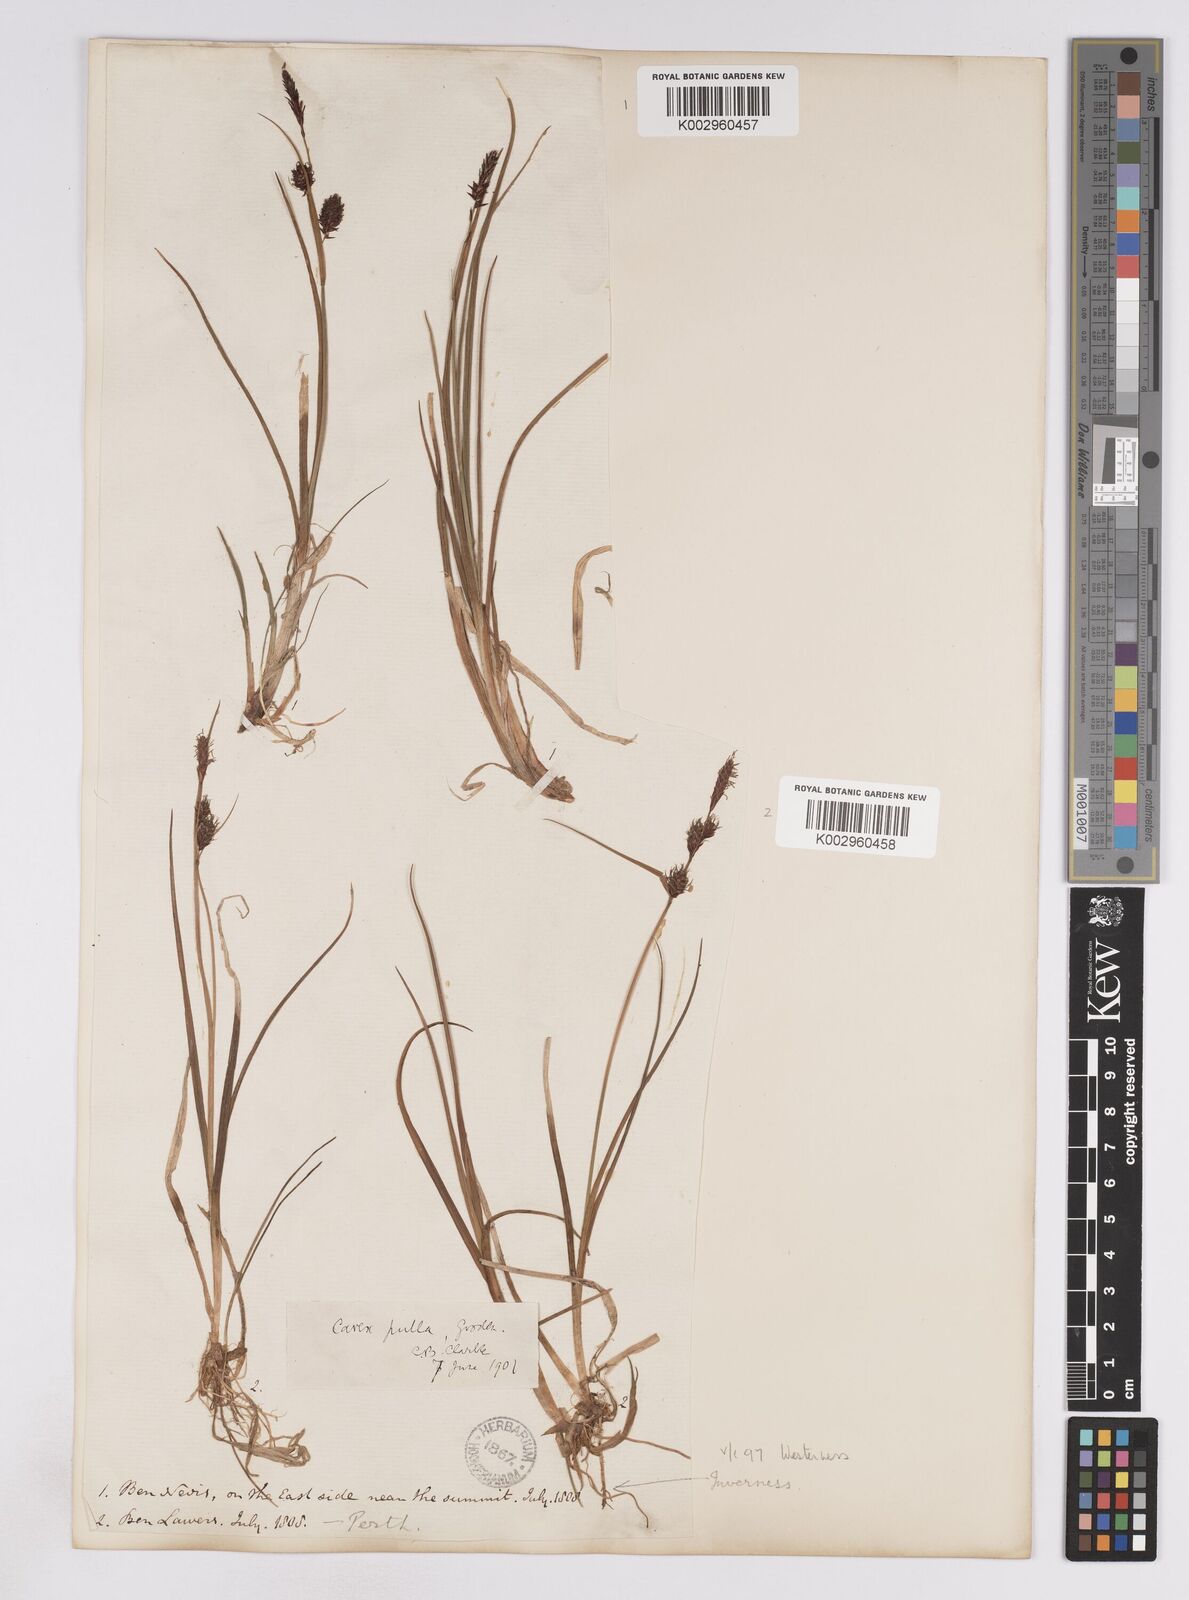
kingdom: Plantae
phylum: Tracheophyta
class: Liliopsida
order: Poales
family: Cyperaceae
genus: Carex
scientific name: Carex saxatilis
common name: Russet sedge
